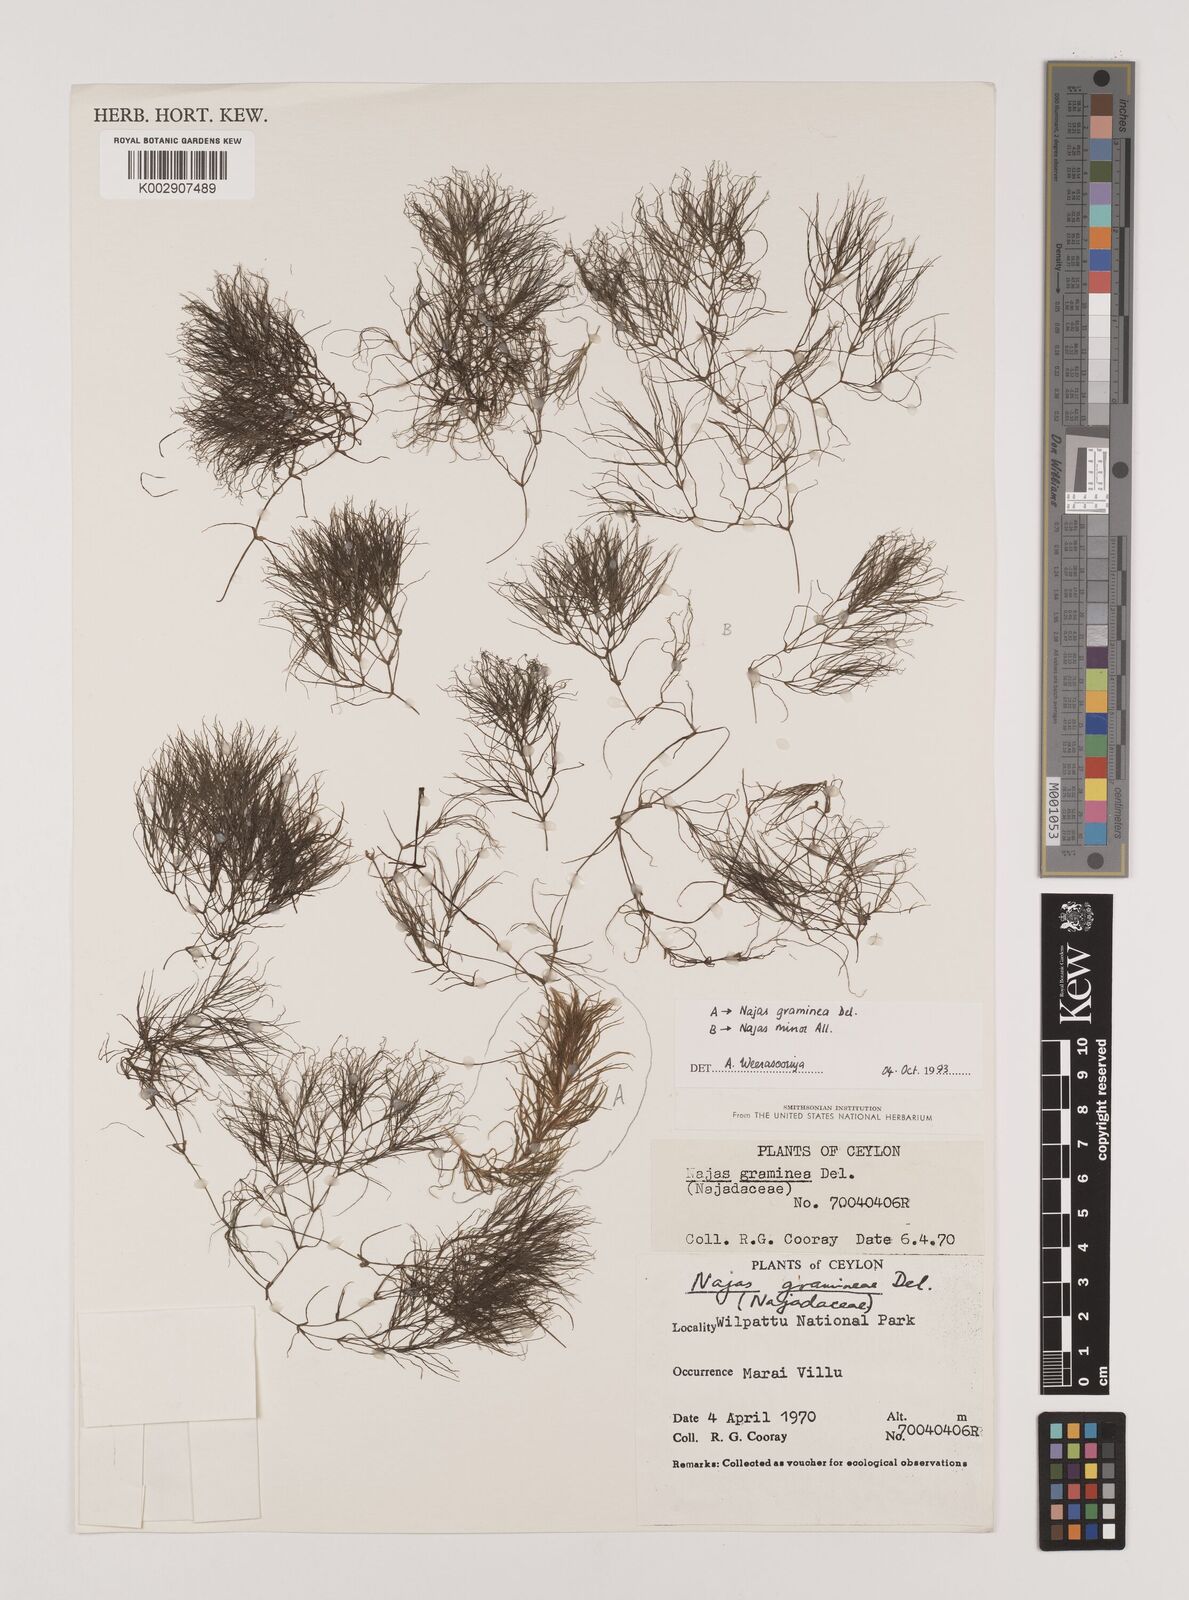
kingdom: Plantae
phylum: Tracheophyta
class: Liliopsida
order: Alismatales
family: Hydrocharitaceae
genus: Najas
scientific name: Najas graminea
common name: Ricefield waternymph
